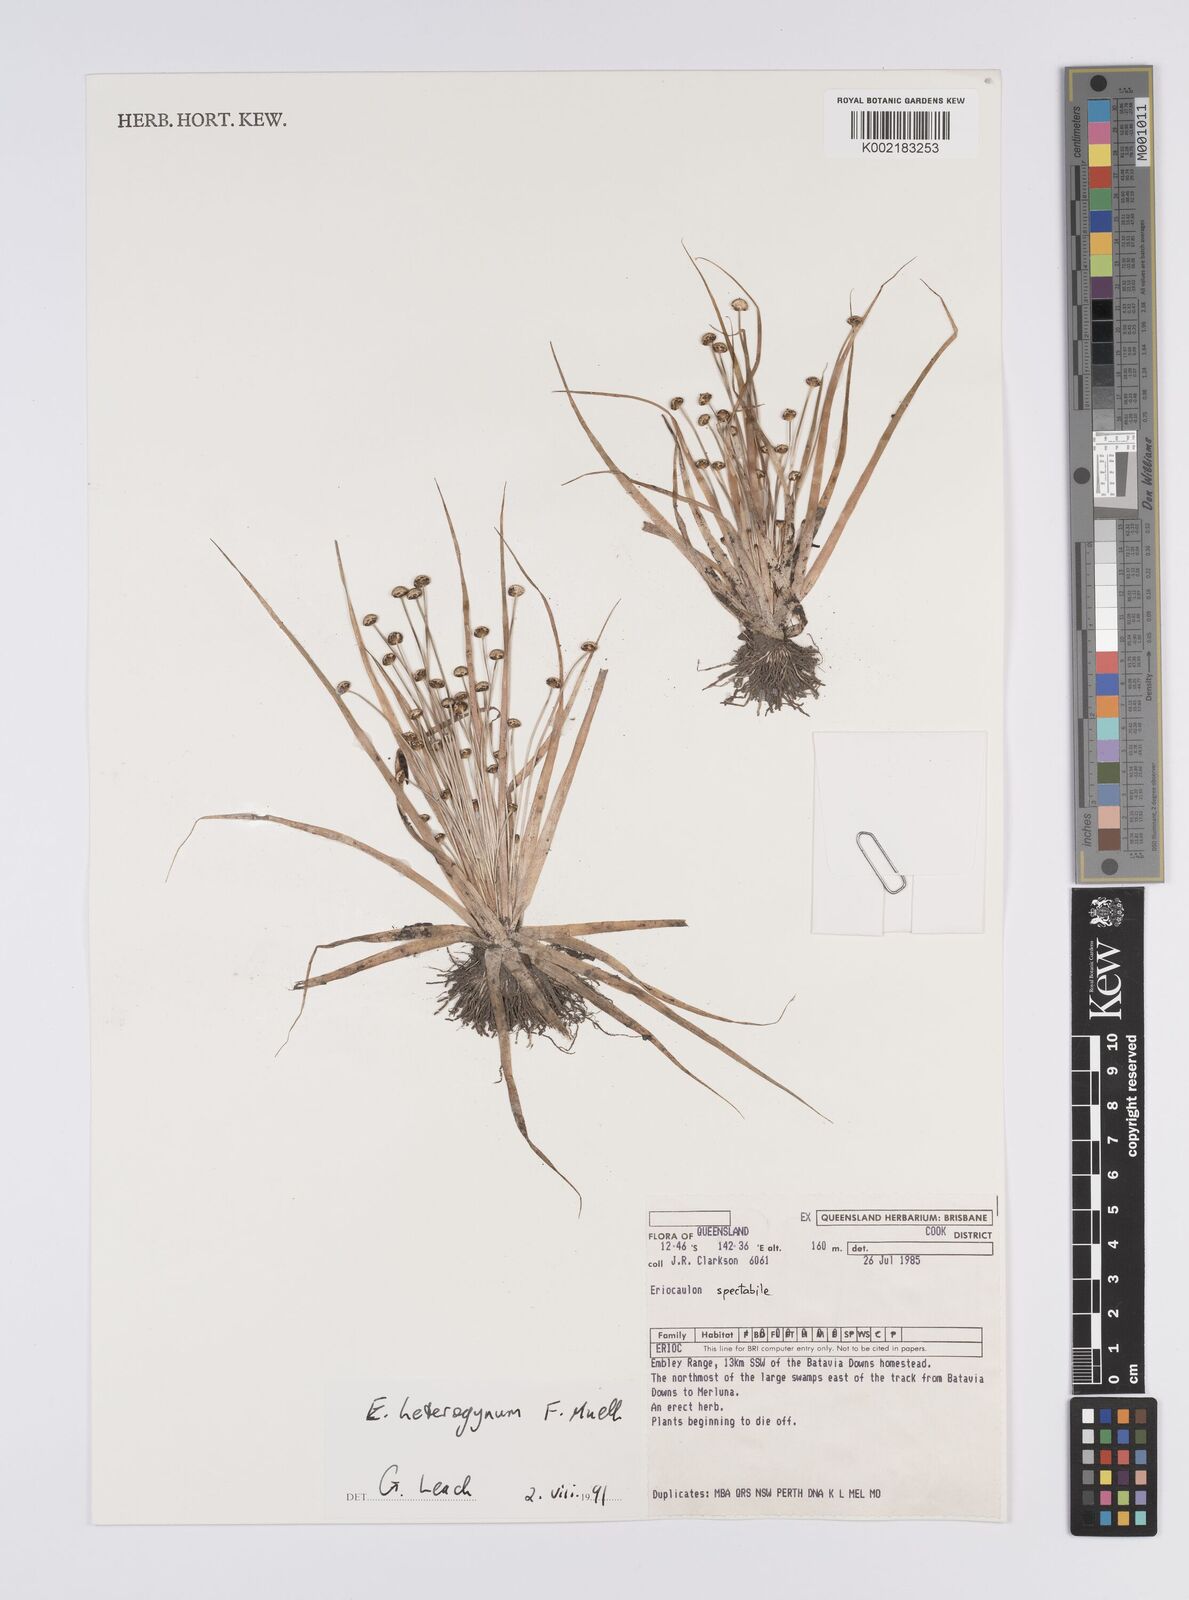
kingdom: Plantae
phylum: Tracheophyta
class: Liliopsida
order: Poales
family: Eriocaulaceae
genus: Eriocaulon
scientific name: Eriocaulon depressum
